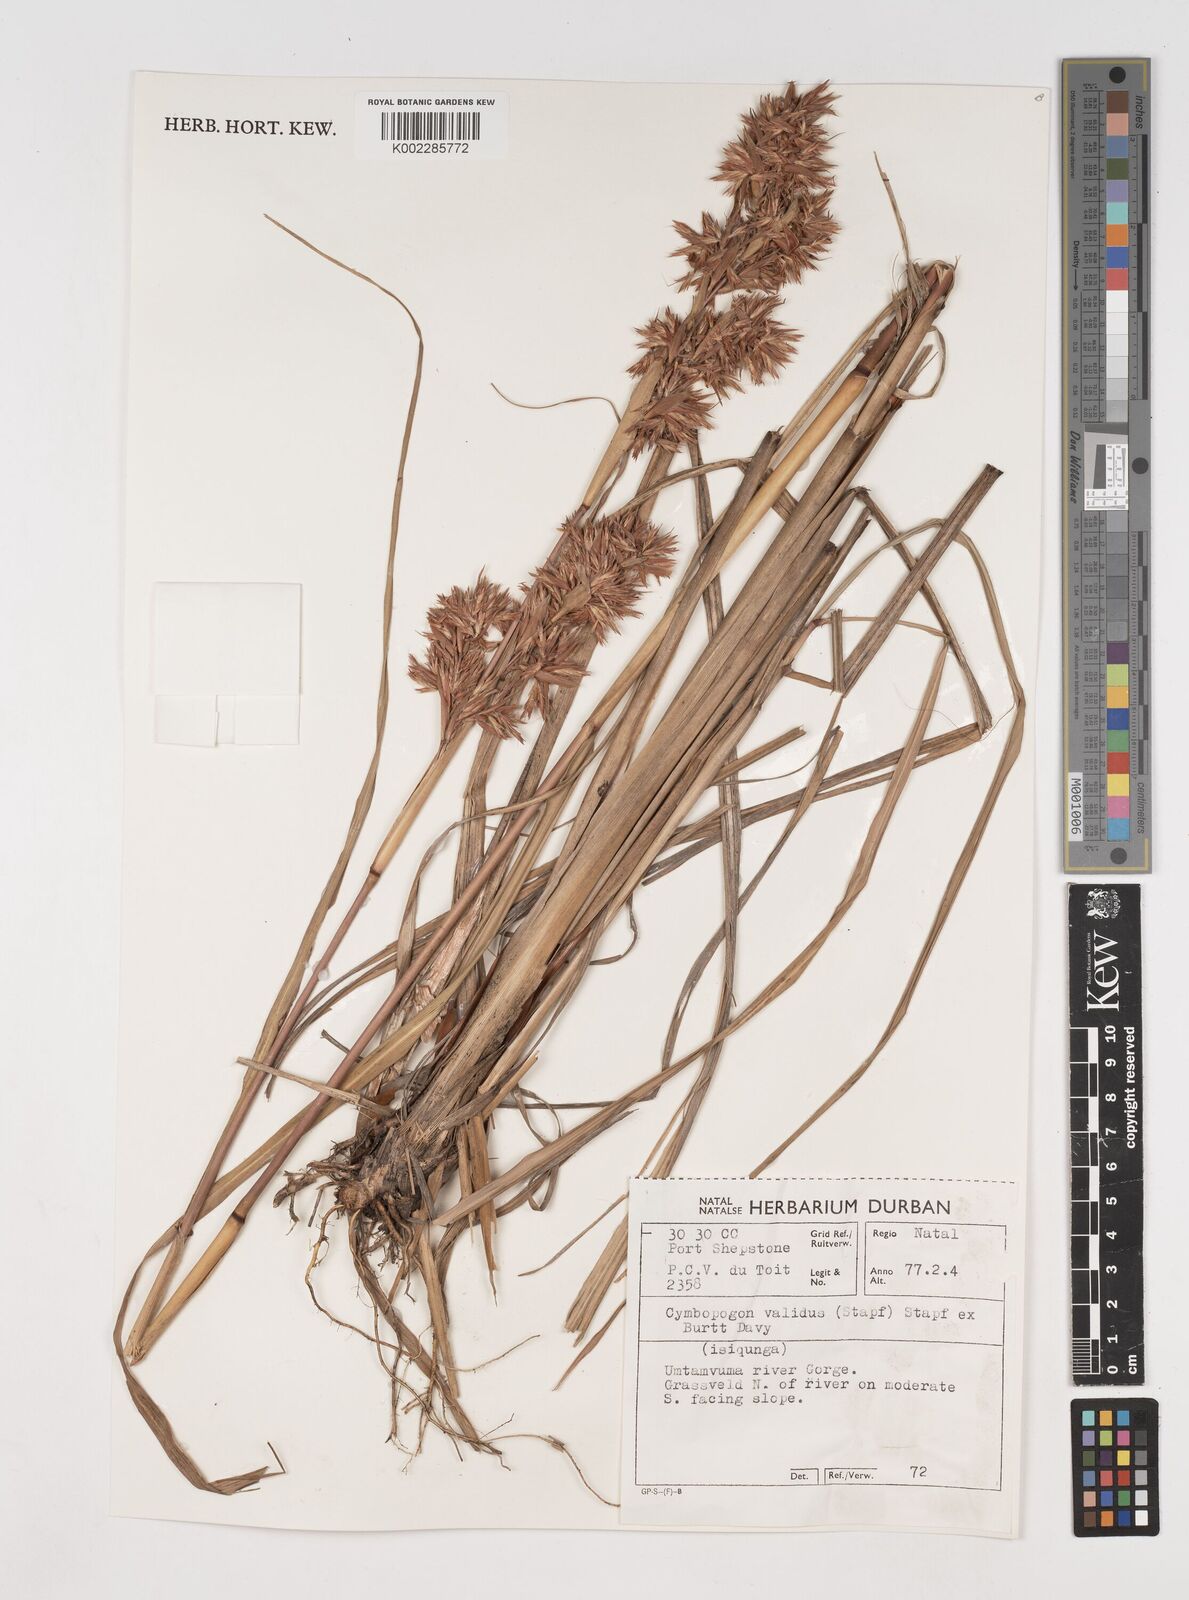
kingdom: Plantae
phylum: Tracheophyta
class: Liliopsida
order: Poales
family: Poaceae
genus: Cymbopogon
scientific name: Cymbopogon nardus
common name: Giant turpentine grass
